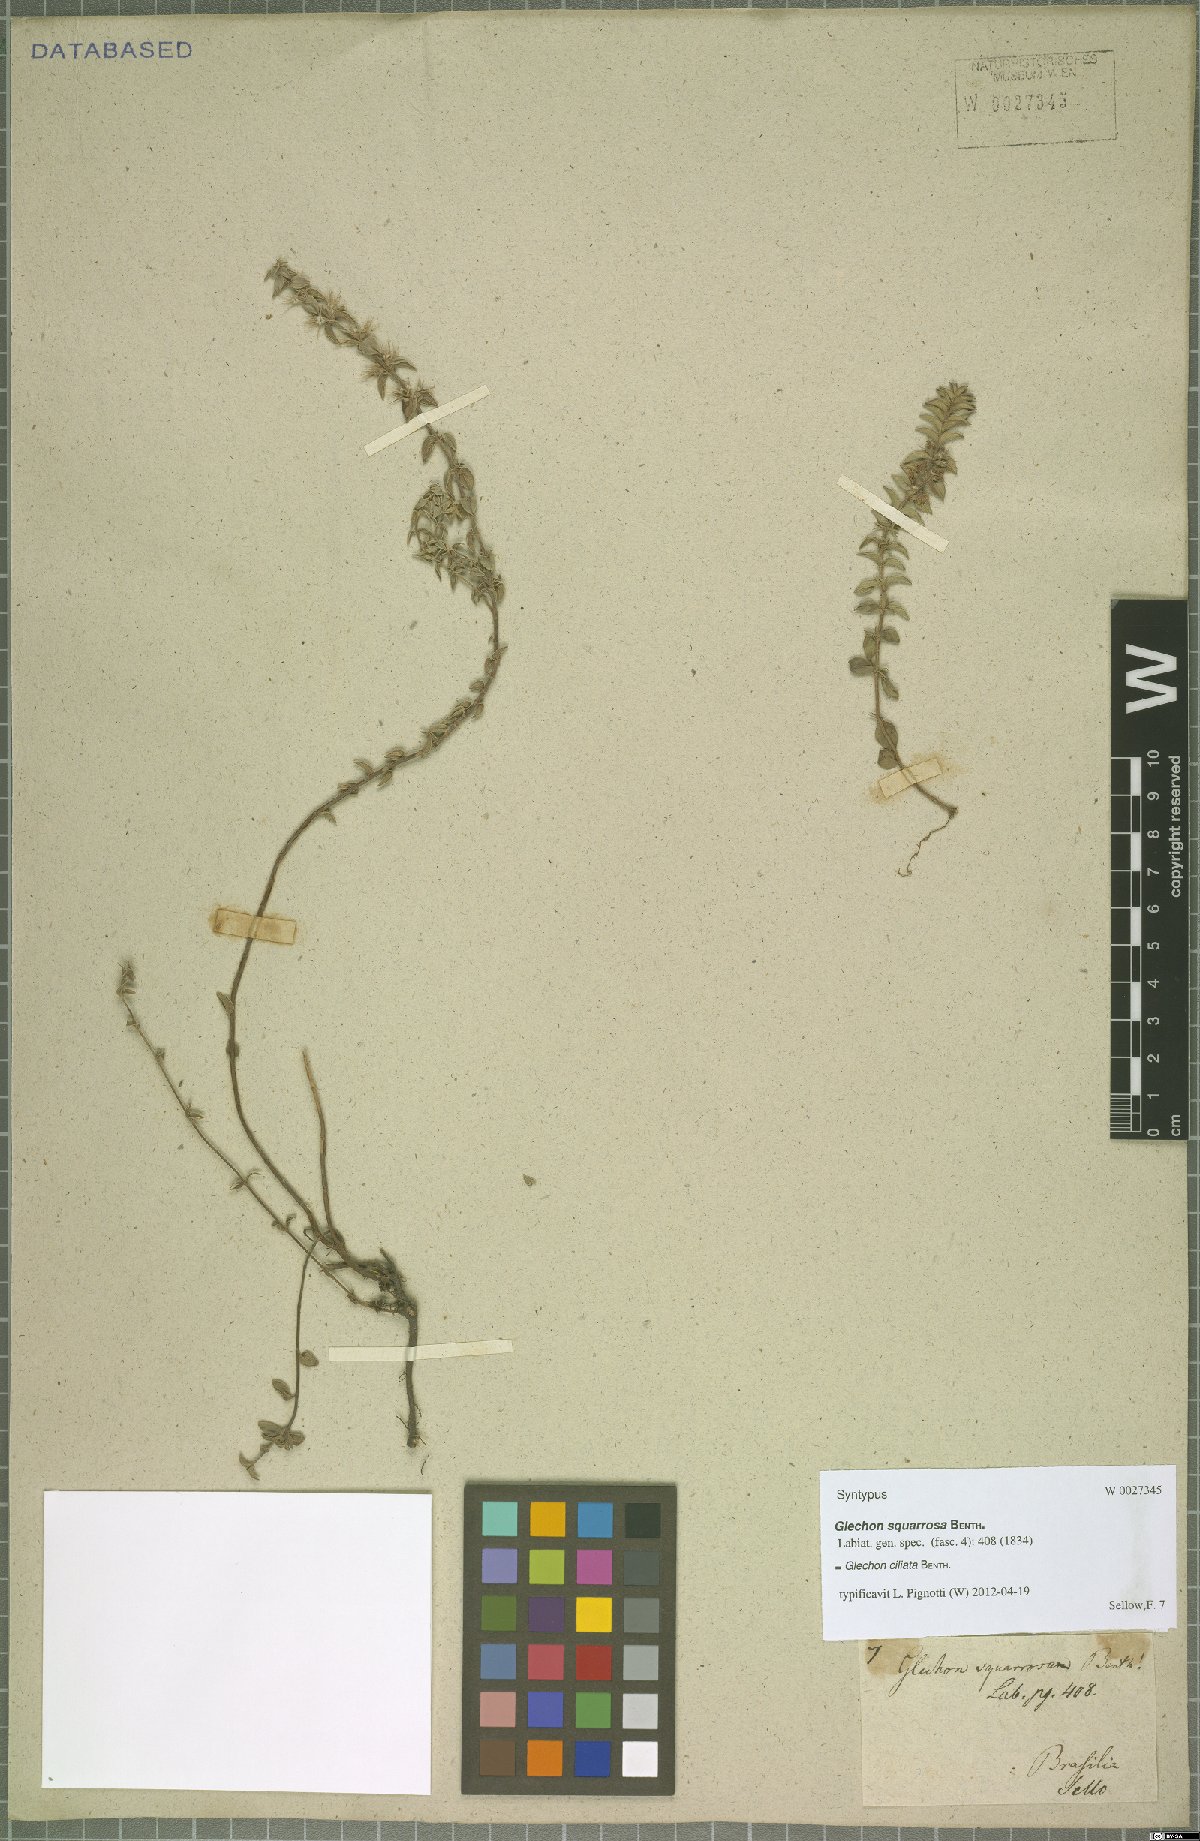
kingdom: Plantae
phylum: Tracheophyta
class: Magnoliopsida
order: Lamiales
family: Lamiaceae
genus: Glechon
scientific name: Glechon ciliata
